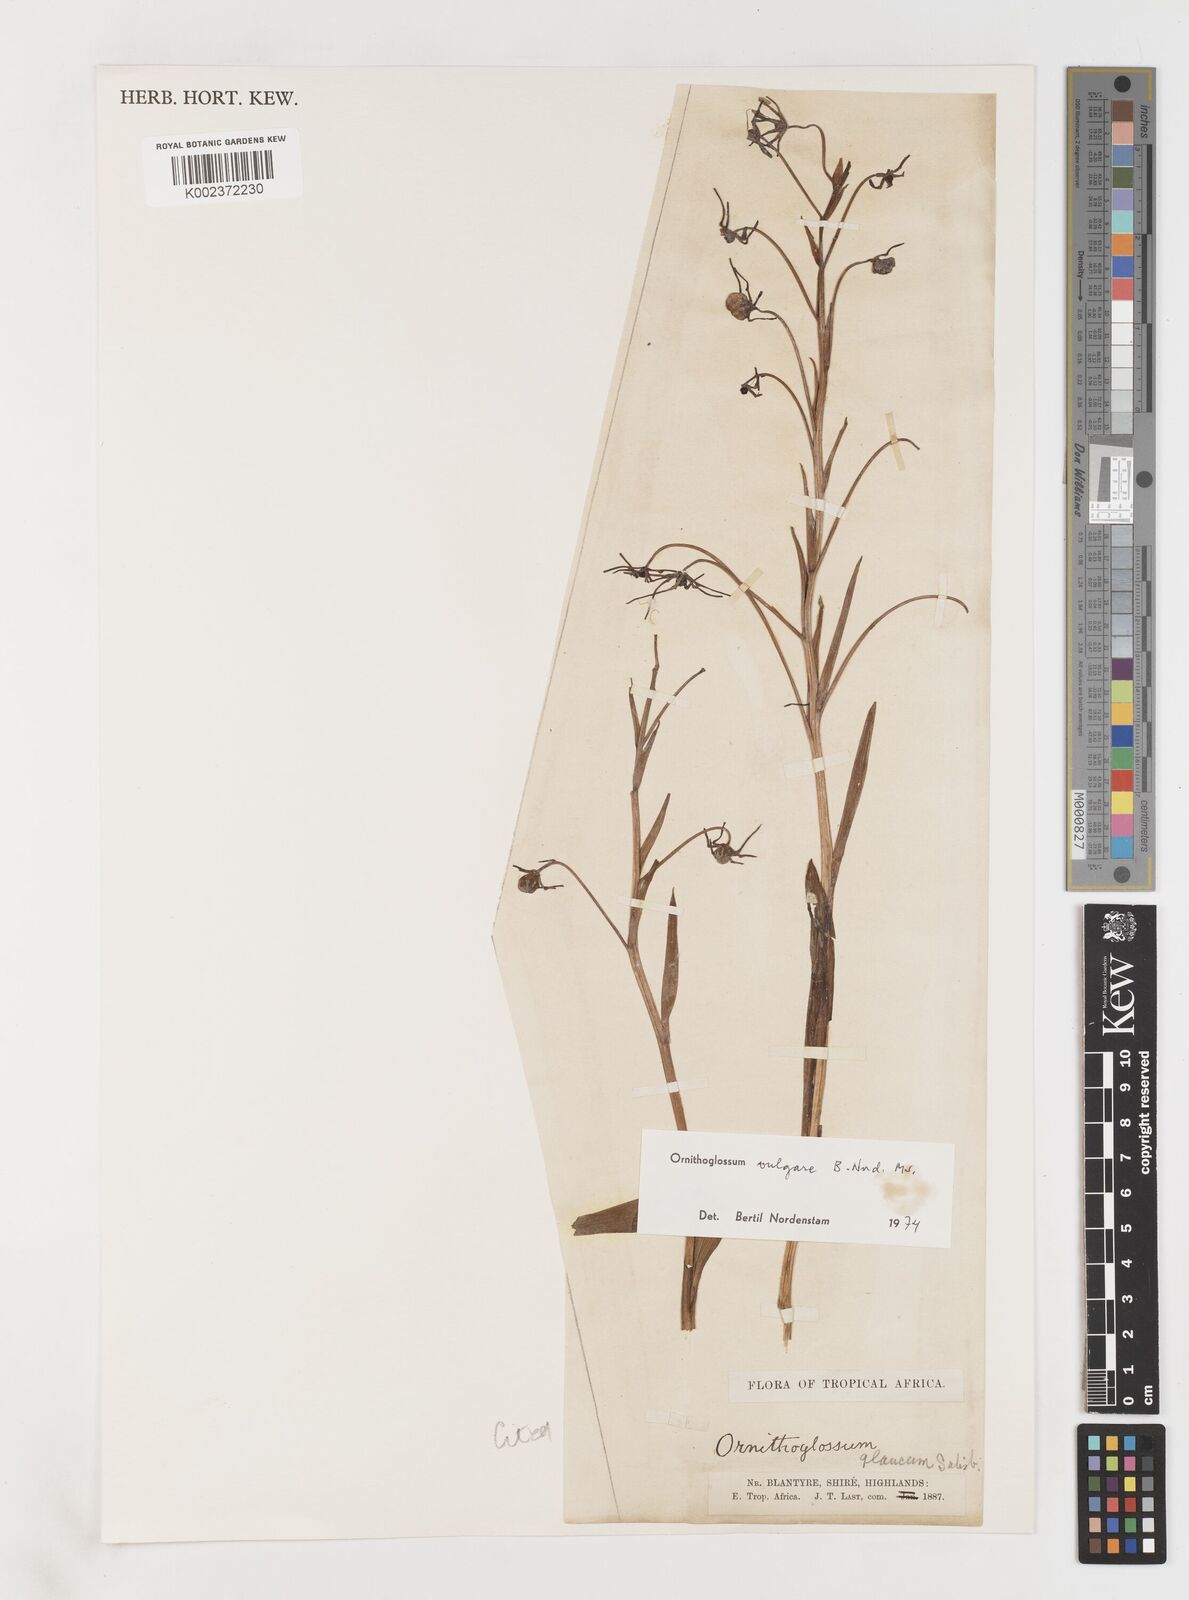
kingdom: Plantae
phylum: Tracheophyta
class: Liliopsida
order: Liliales
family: Colchicaceae
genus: Ornithoglossum
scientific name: Ornithoglossum vulgare
